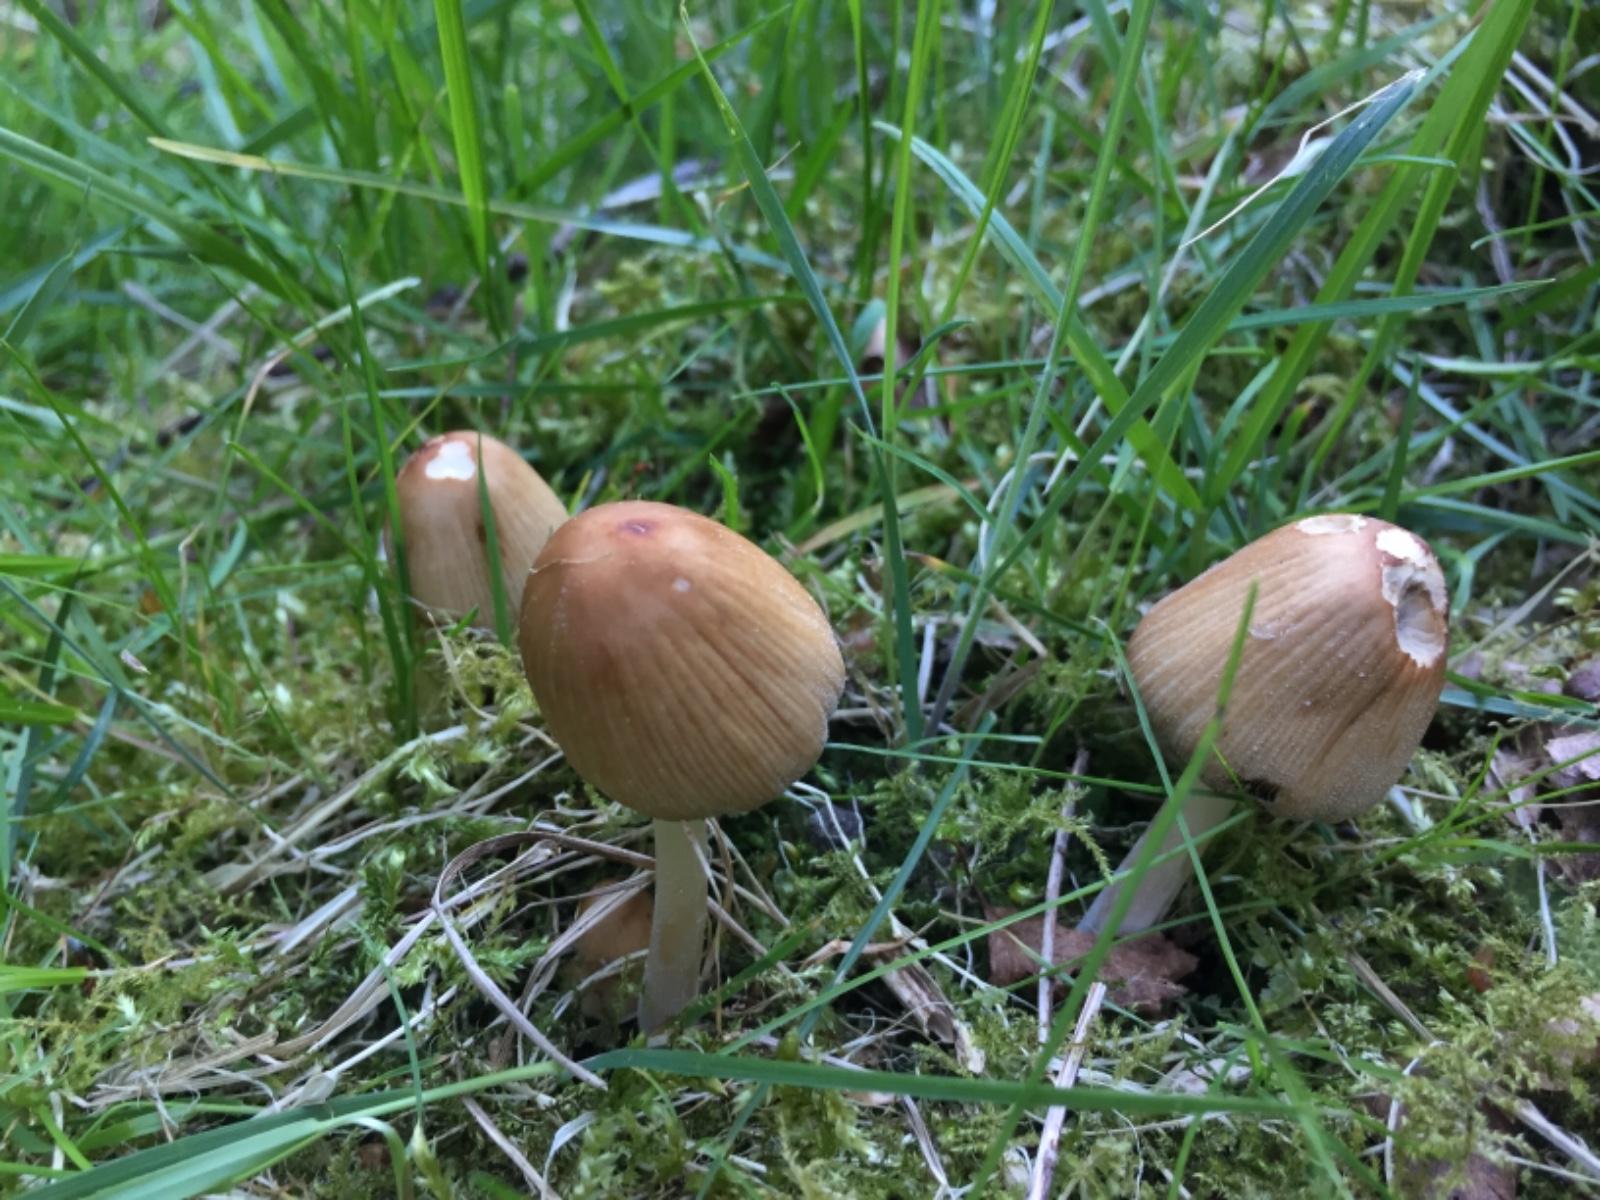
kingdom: Fungi
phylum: Basidiomycota
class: Agaricomycetes
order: Agaricales
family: Psathyrellaceae
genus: Coprinellus
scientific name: Coprinellus
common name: blækhat
